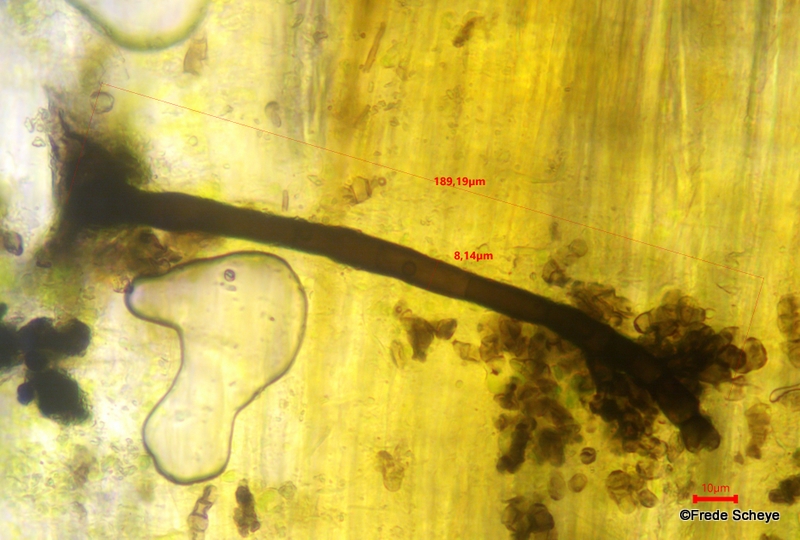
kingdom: Fungi
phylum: Ascomycota
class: Dothideomycetes
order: Pleosporales
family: Torulaceae
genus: Dendryphion
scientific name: Dendryphion comosum
